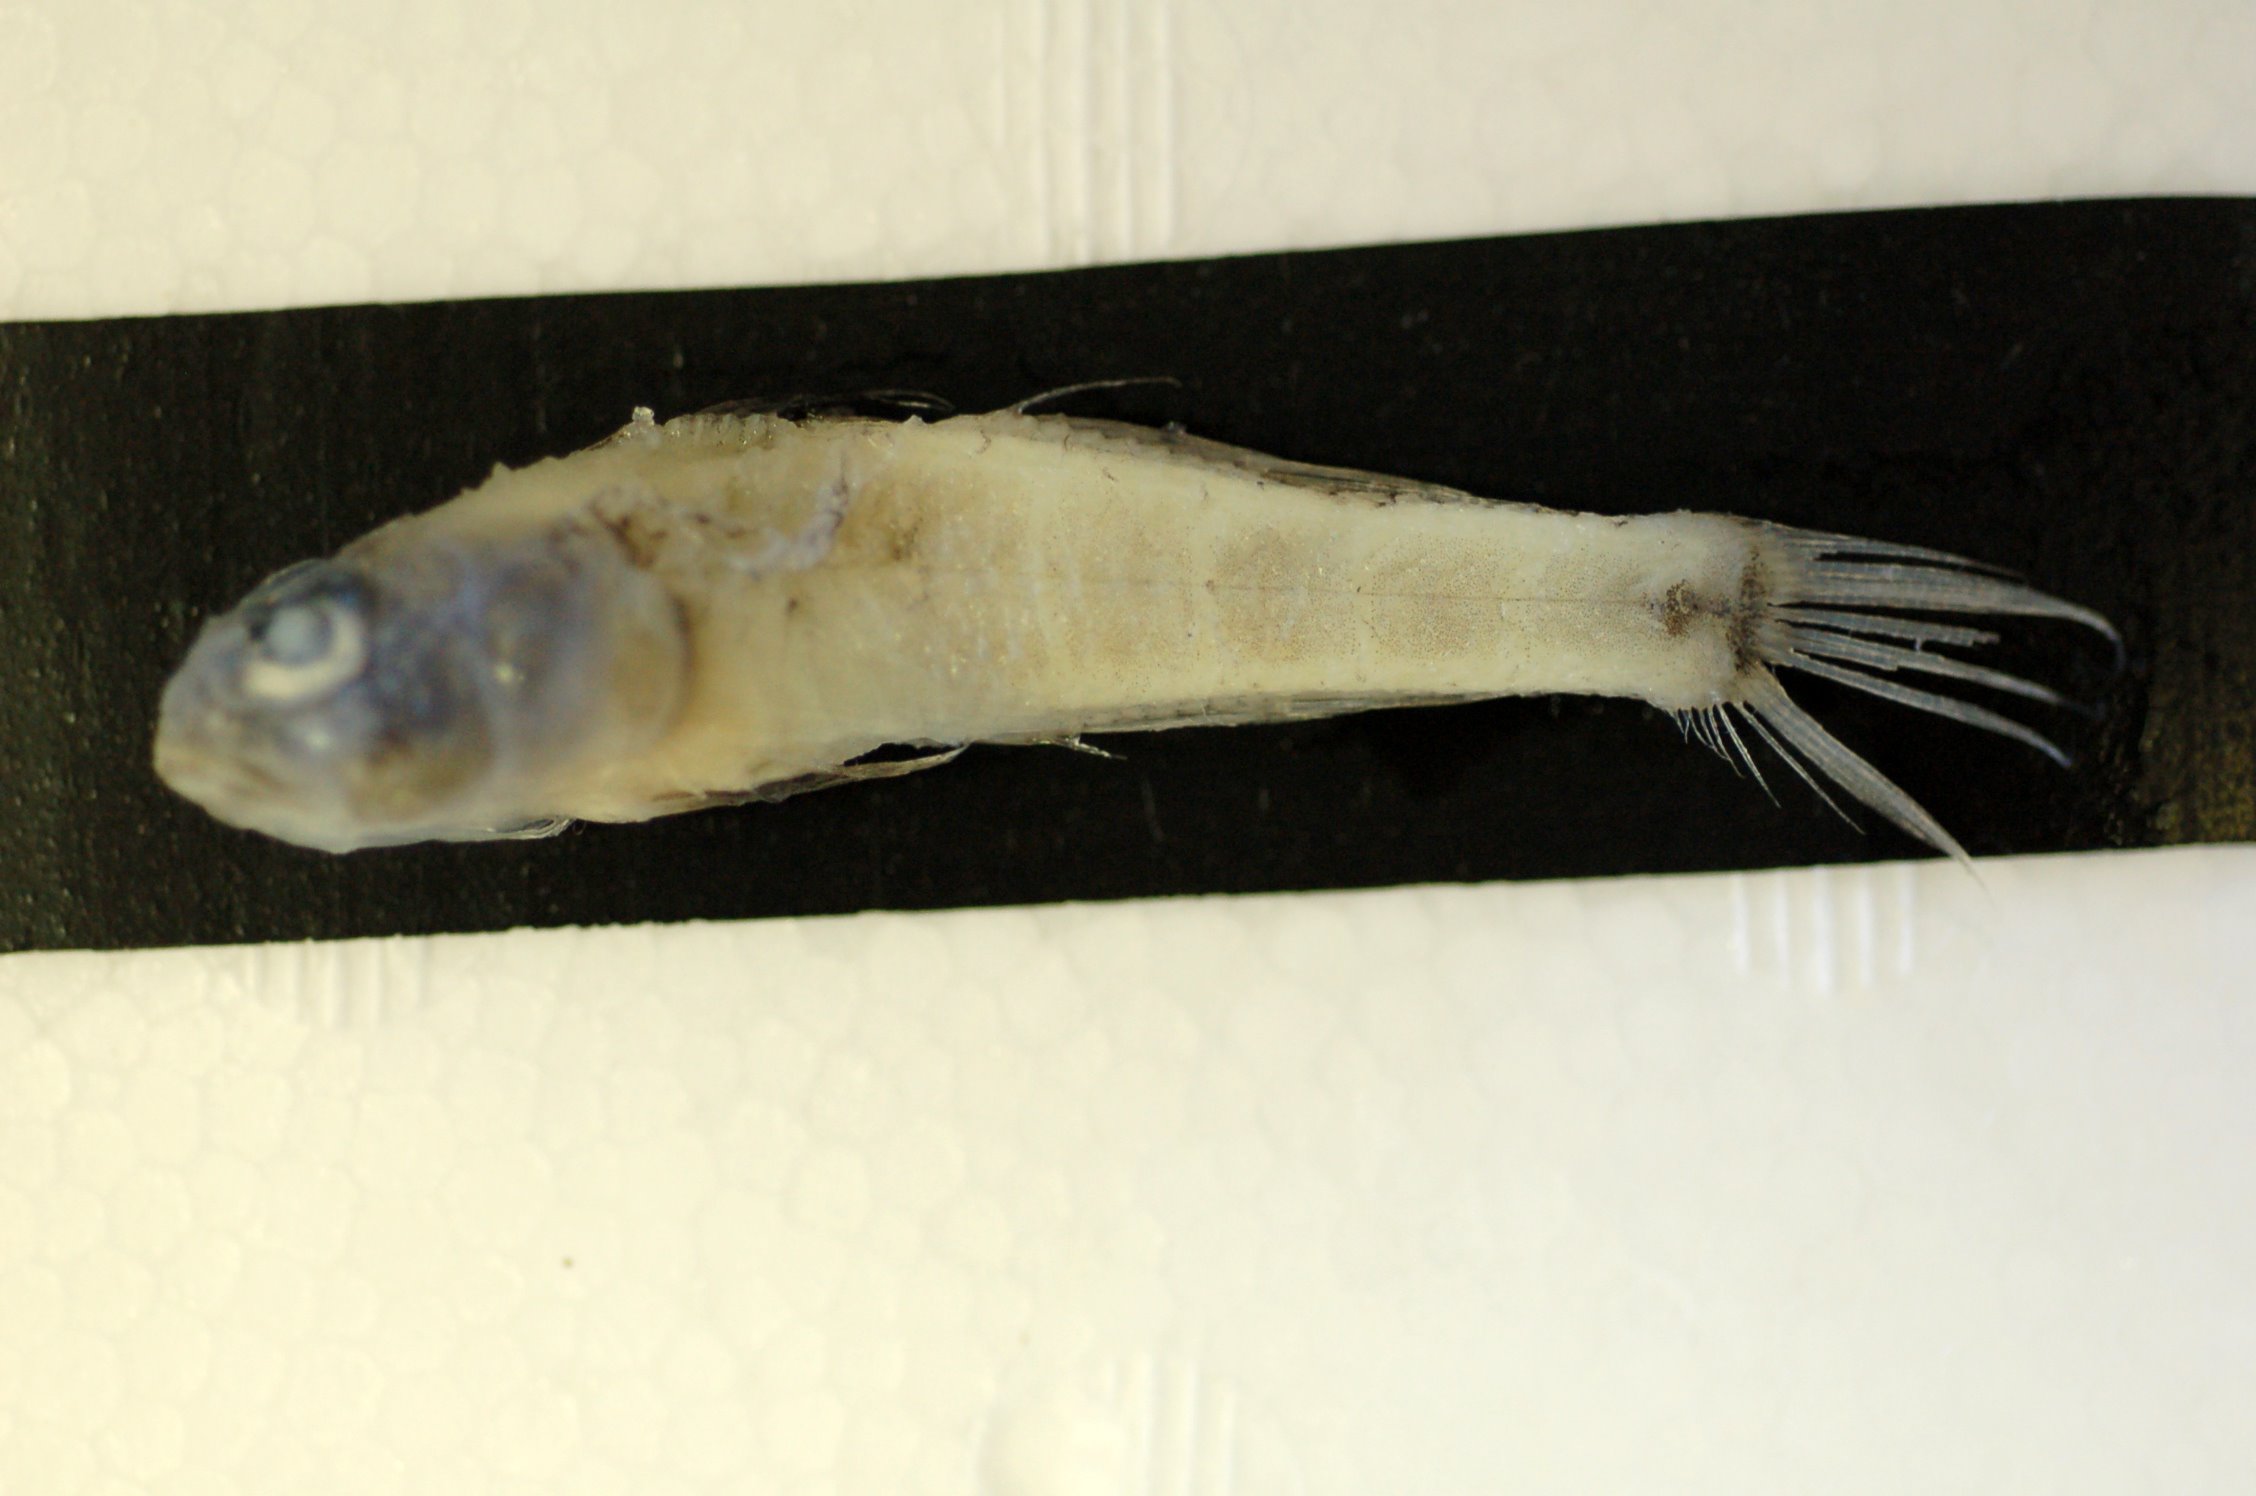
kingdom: Animalia
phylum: Chordata
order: Perciformes
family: Gobiidae
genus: Obliquogobius
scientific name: Obliquogobius
